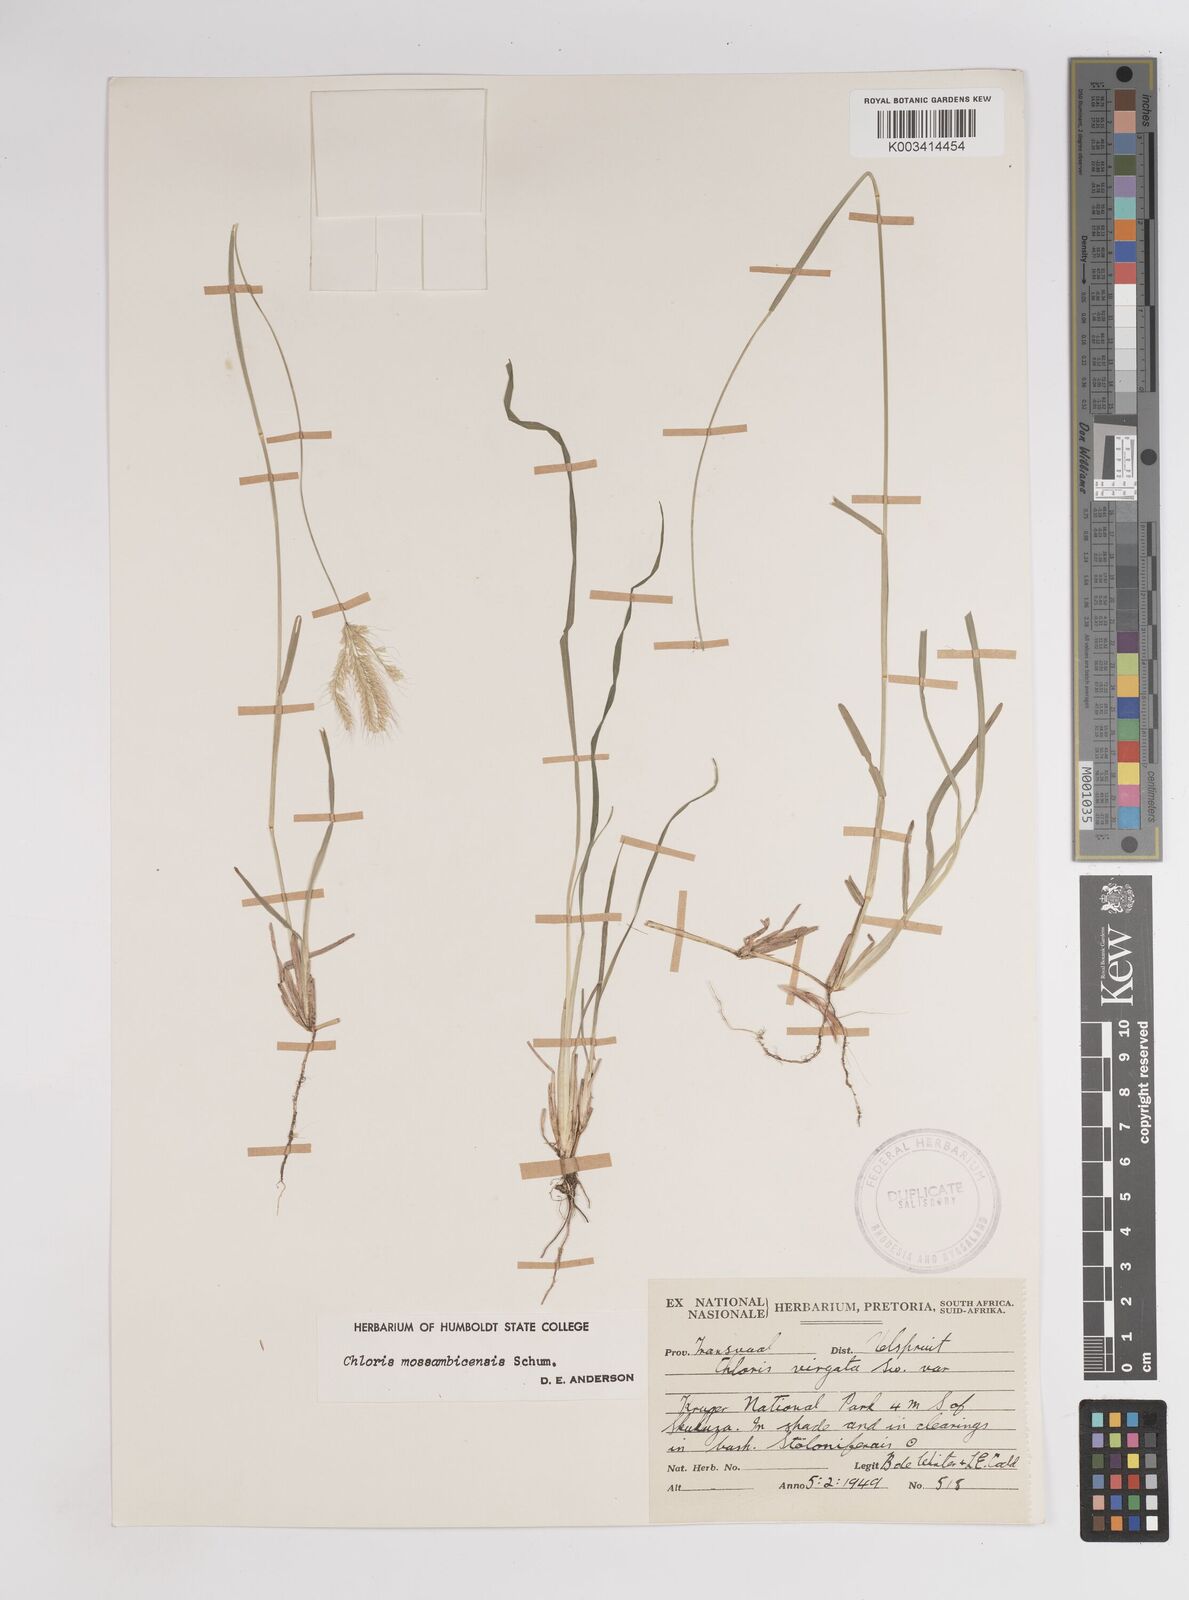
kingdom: Plantae
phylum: Tracheophyta
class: Liliopsida
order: Poales
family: Poaceae
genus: Chloris
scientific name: Chloris mossambicensis
